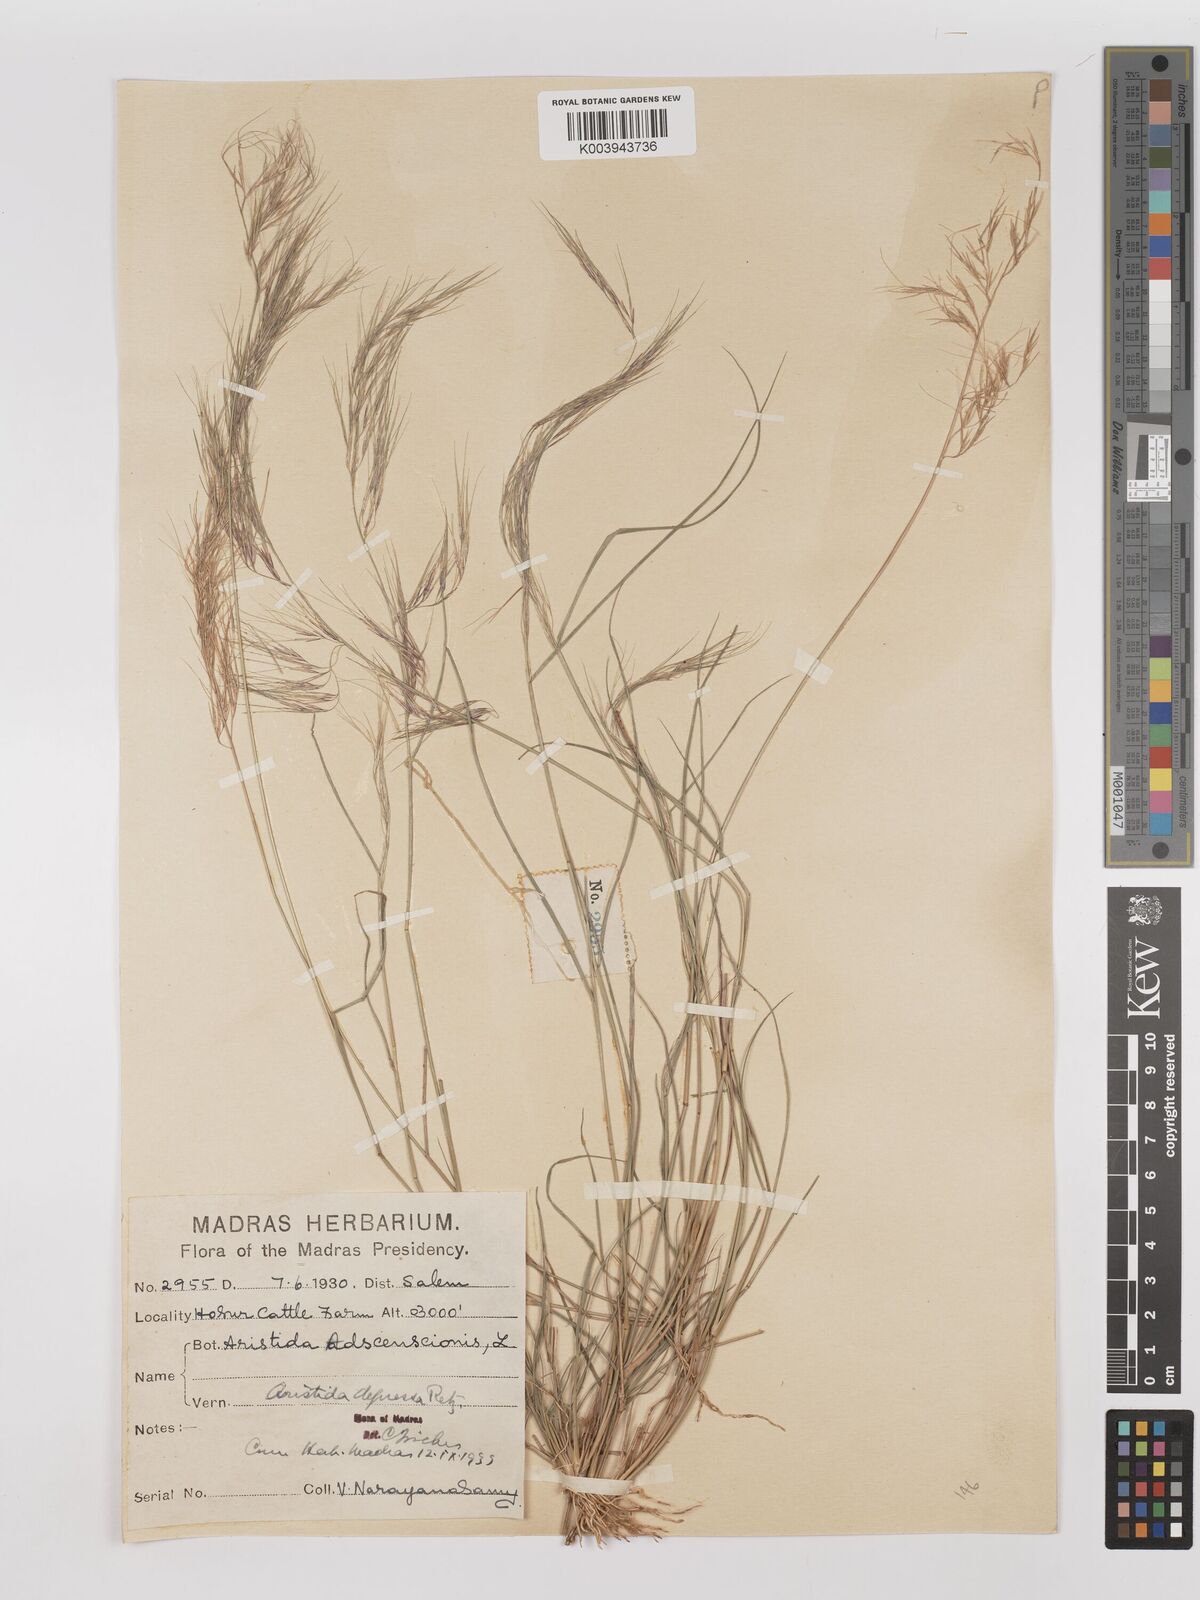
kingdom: Plantae
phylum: Tracheophyta
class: Liliopsida
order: Poales
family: Poaceae
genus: Aristida
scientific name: Aristida adscensionis
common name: Sixweeks threeawn
